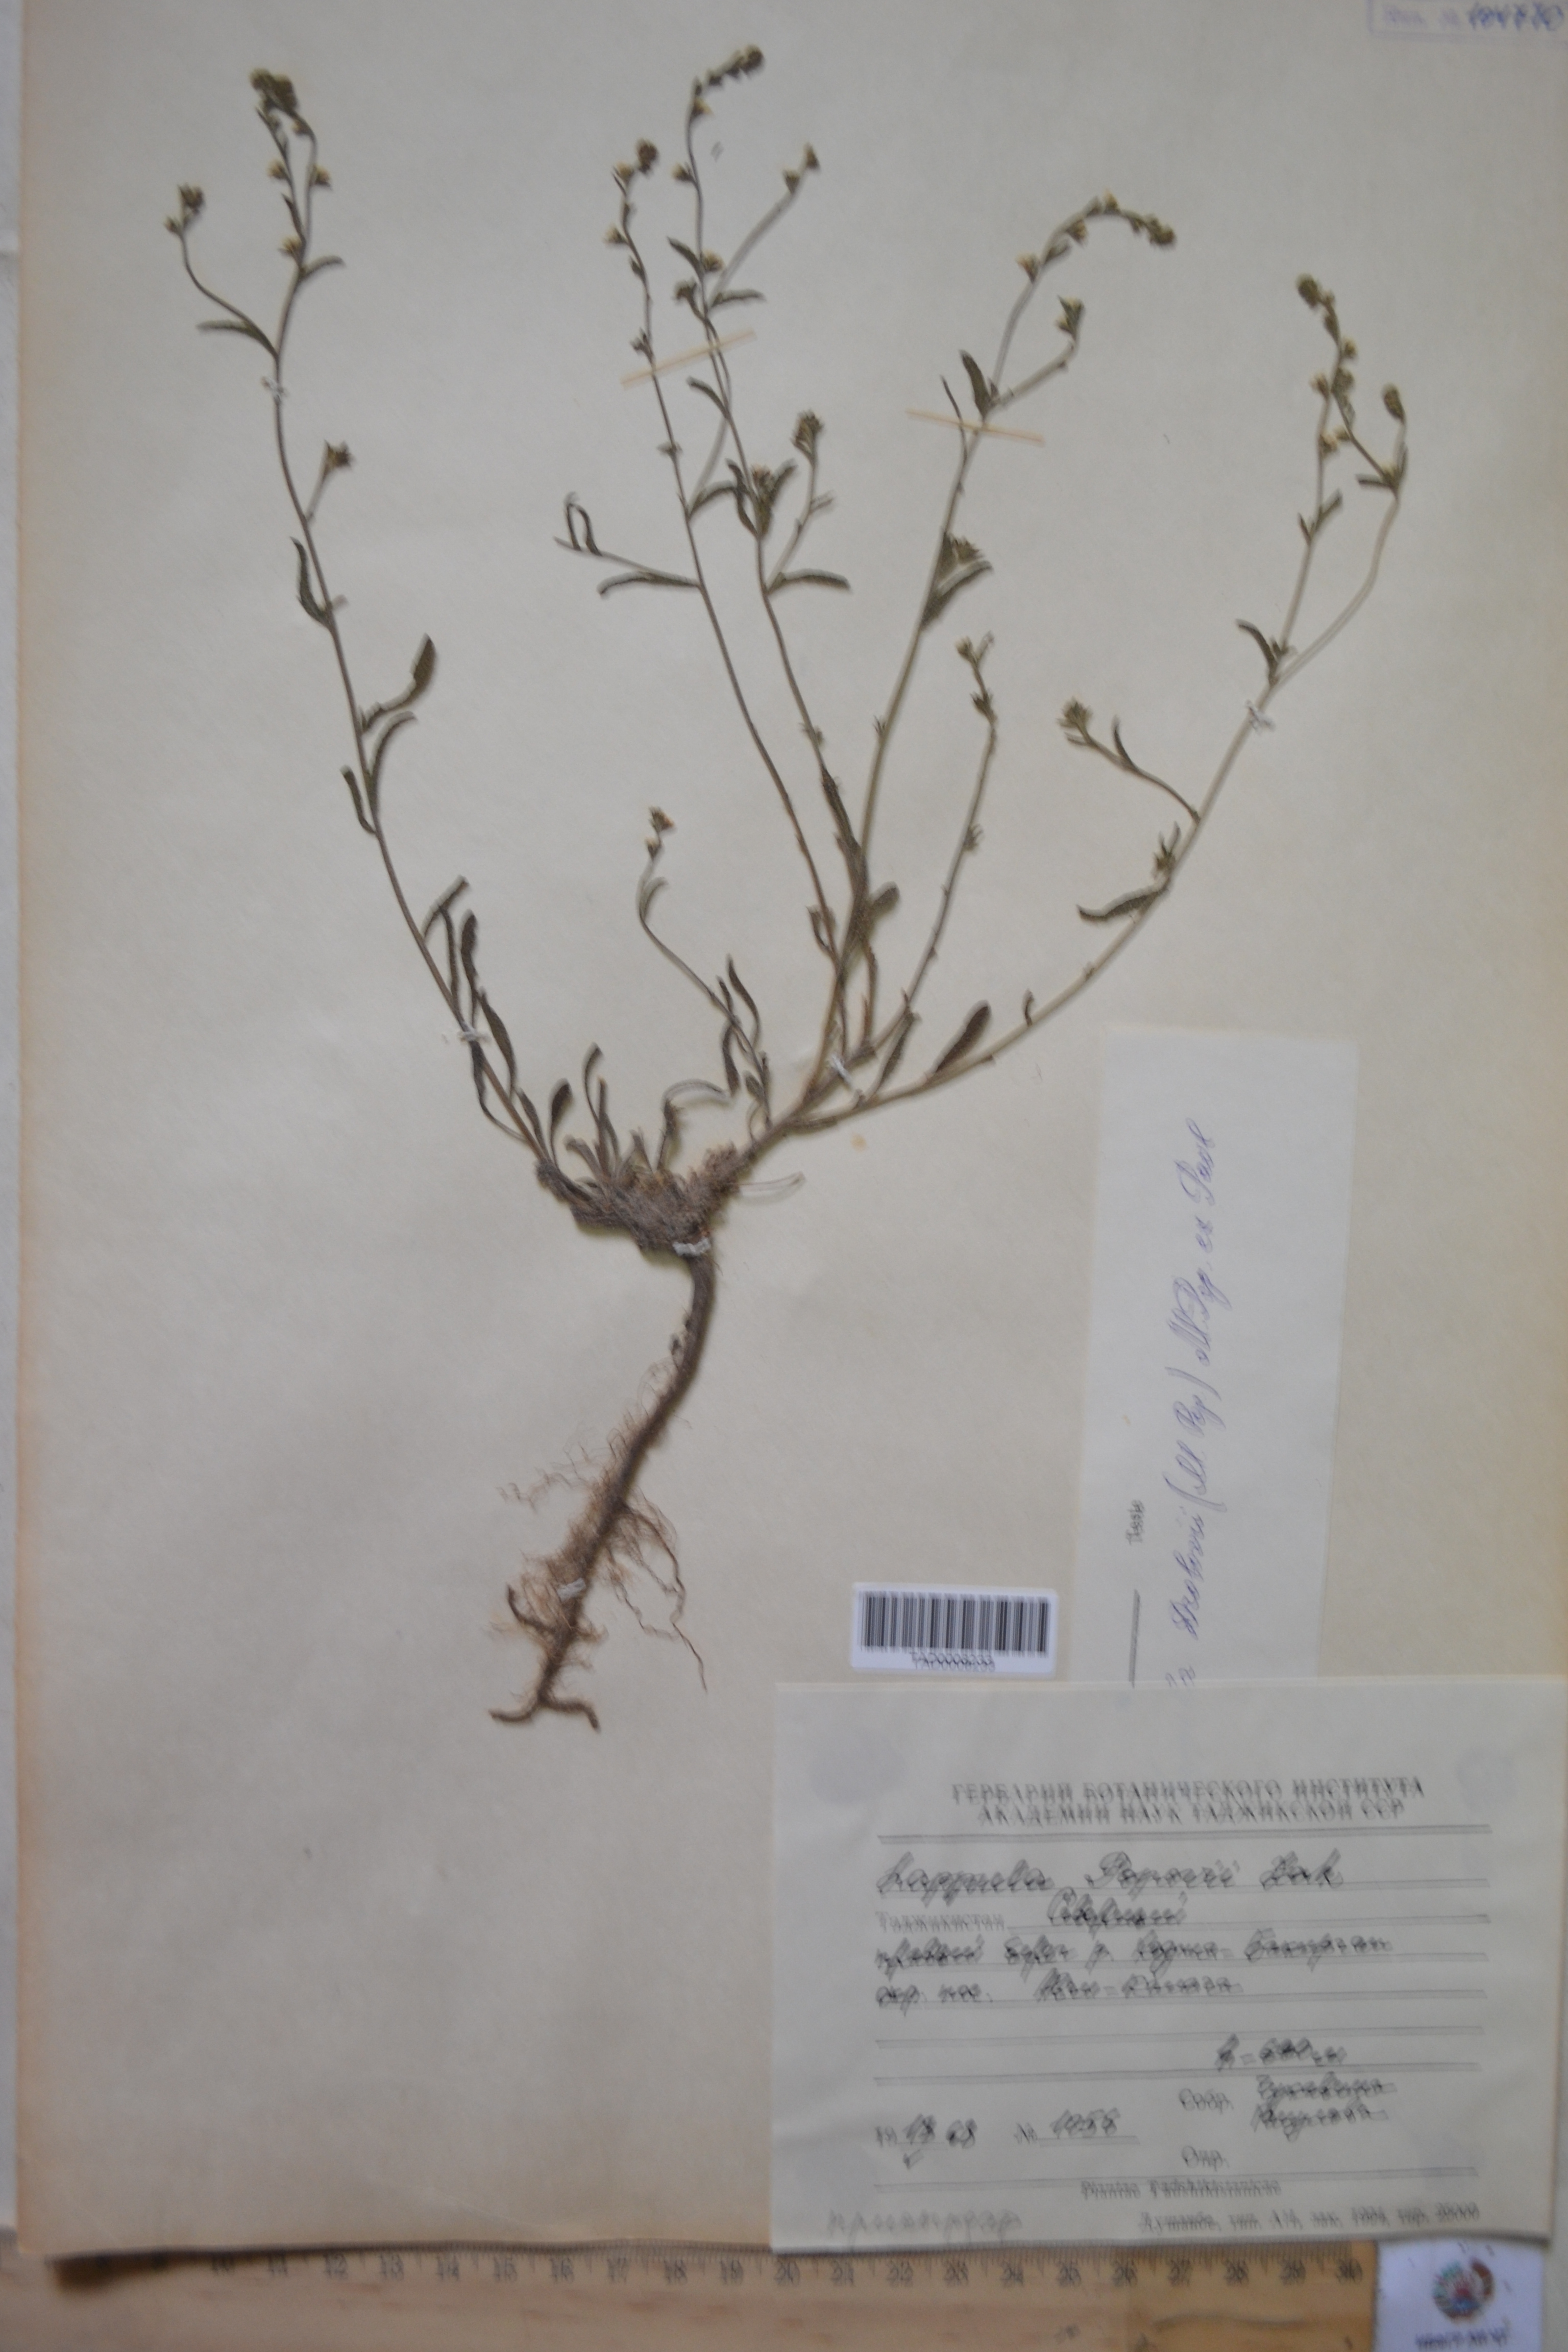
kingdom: Plantae
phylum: Tracheophyta
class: Magnoliopsida
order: Boraginales
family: Boraginaceae
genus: Lappula
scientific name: Lappula popovii
